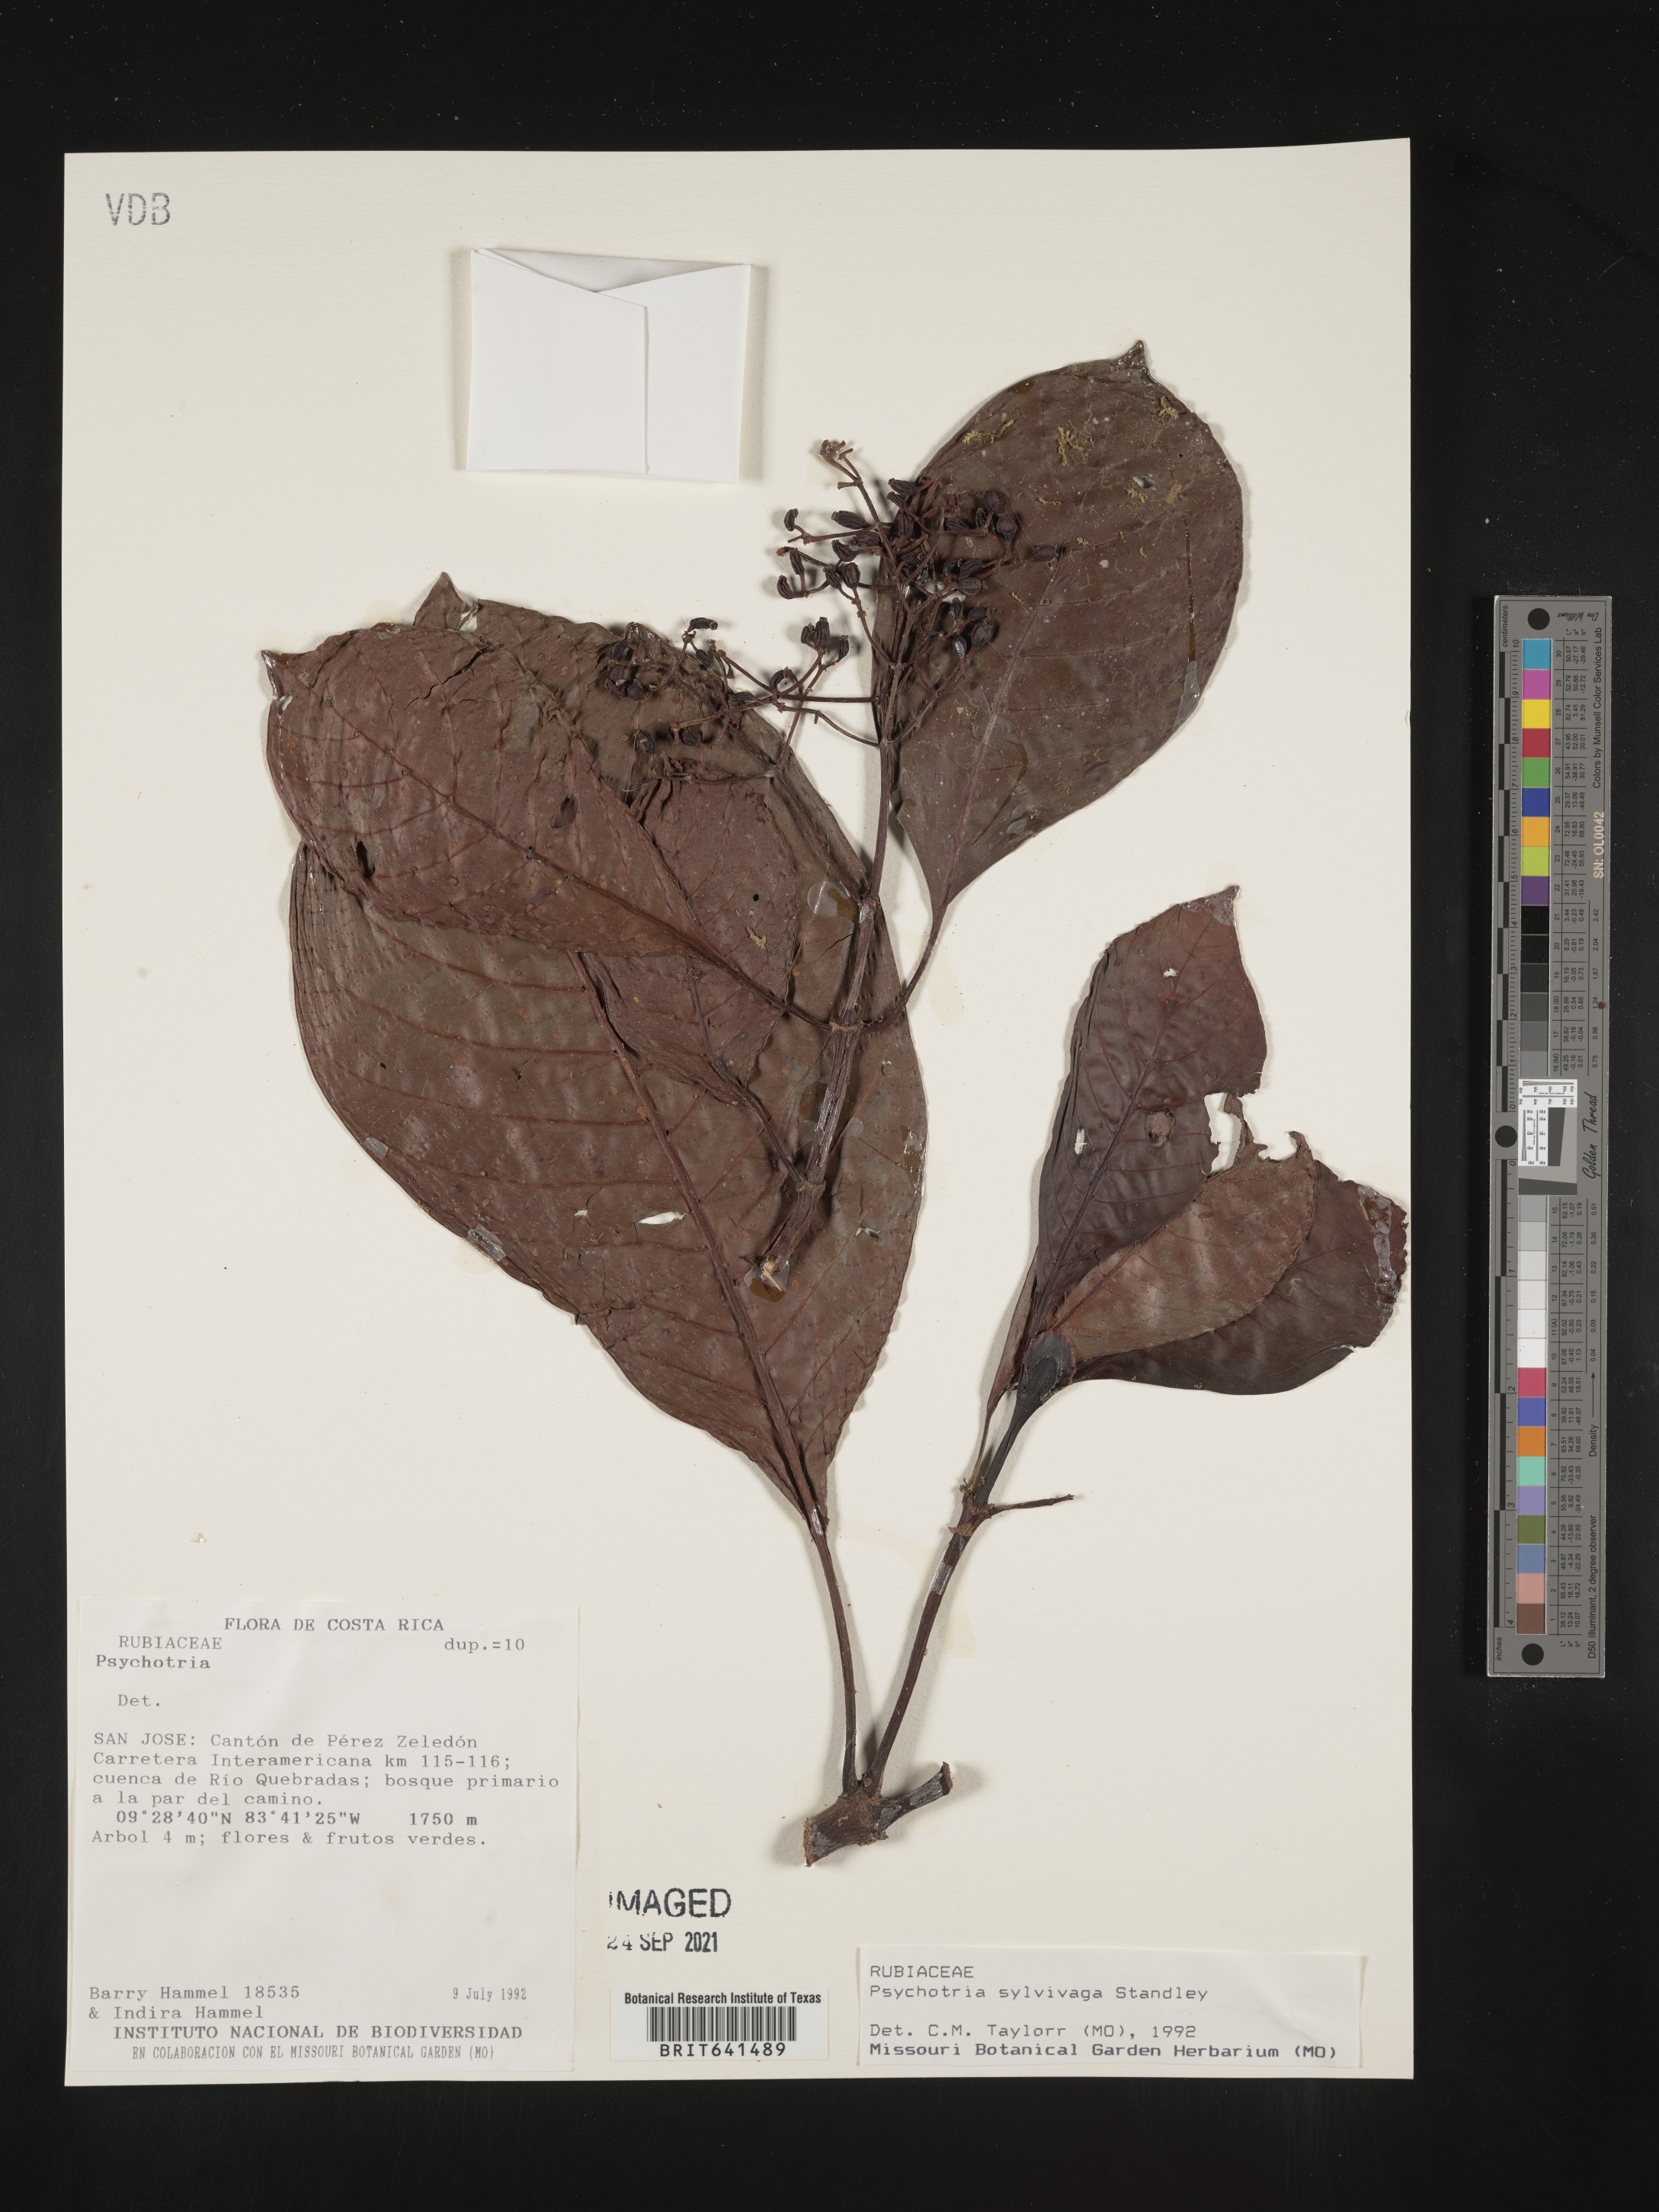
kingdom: Plantae
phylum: Tracheophyta
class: Magnoliopsida
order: Gentianales
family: Rubiaceae
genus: Psychotria
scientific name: Psychotria
